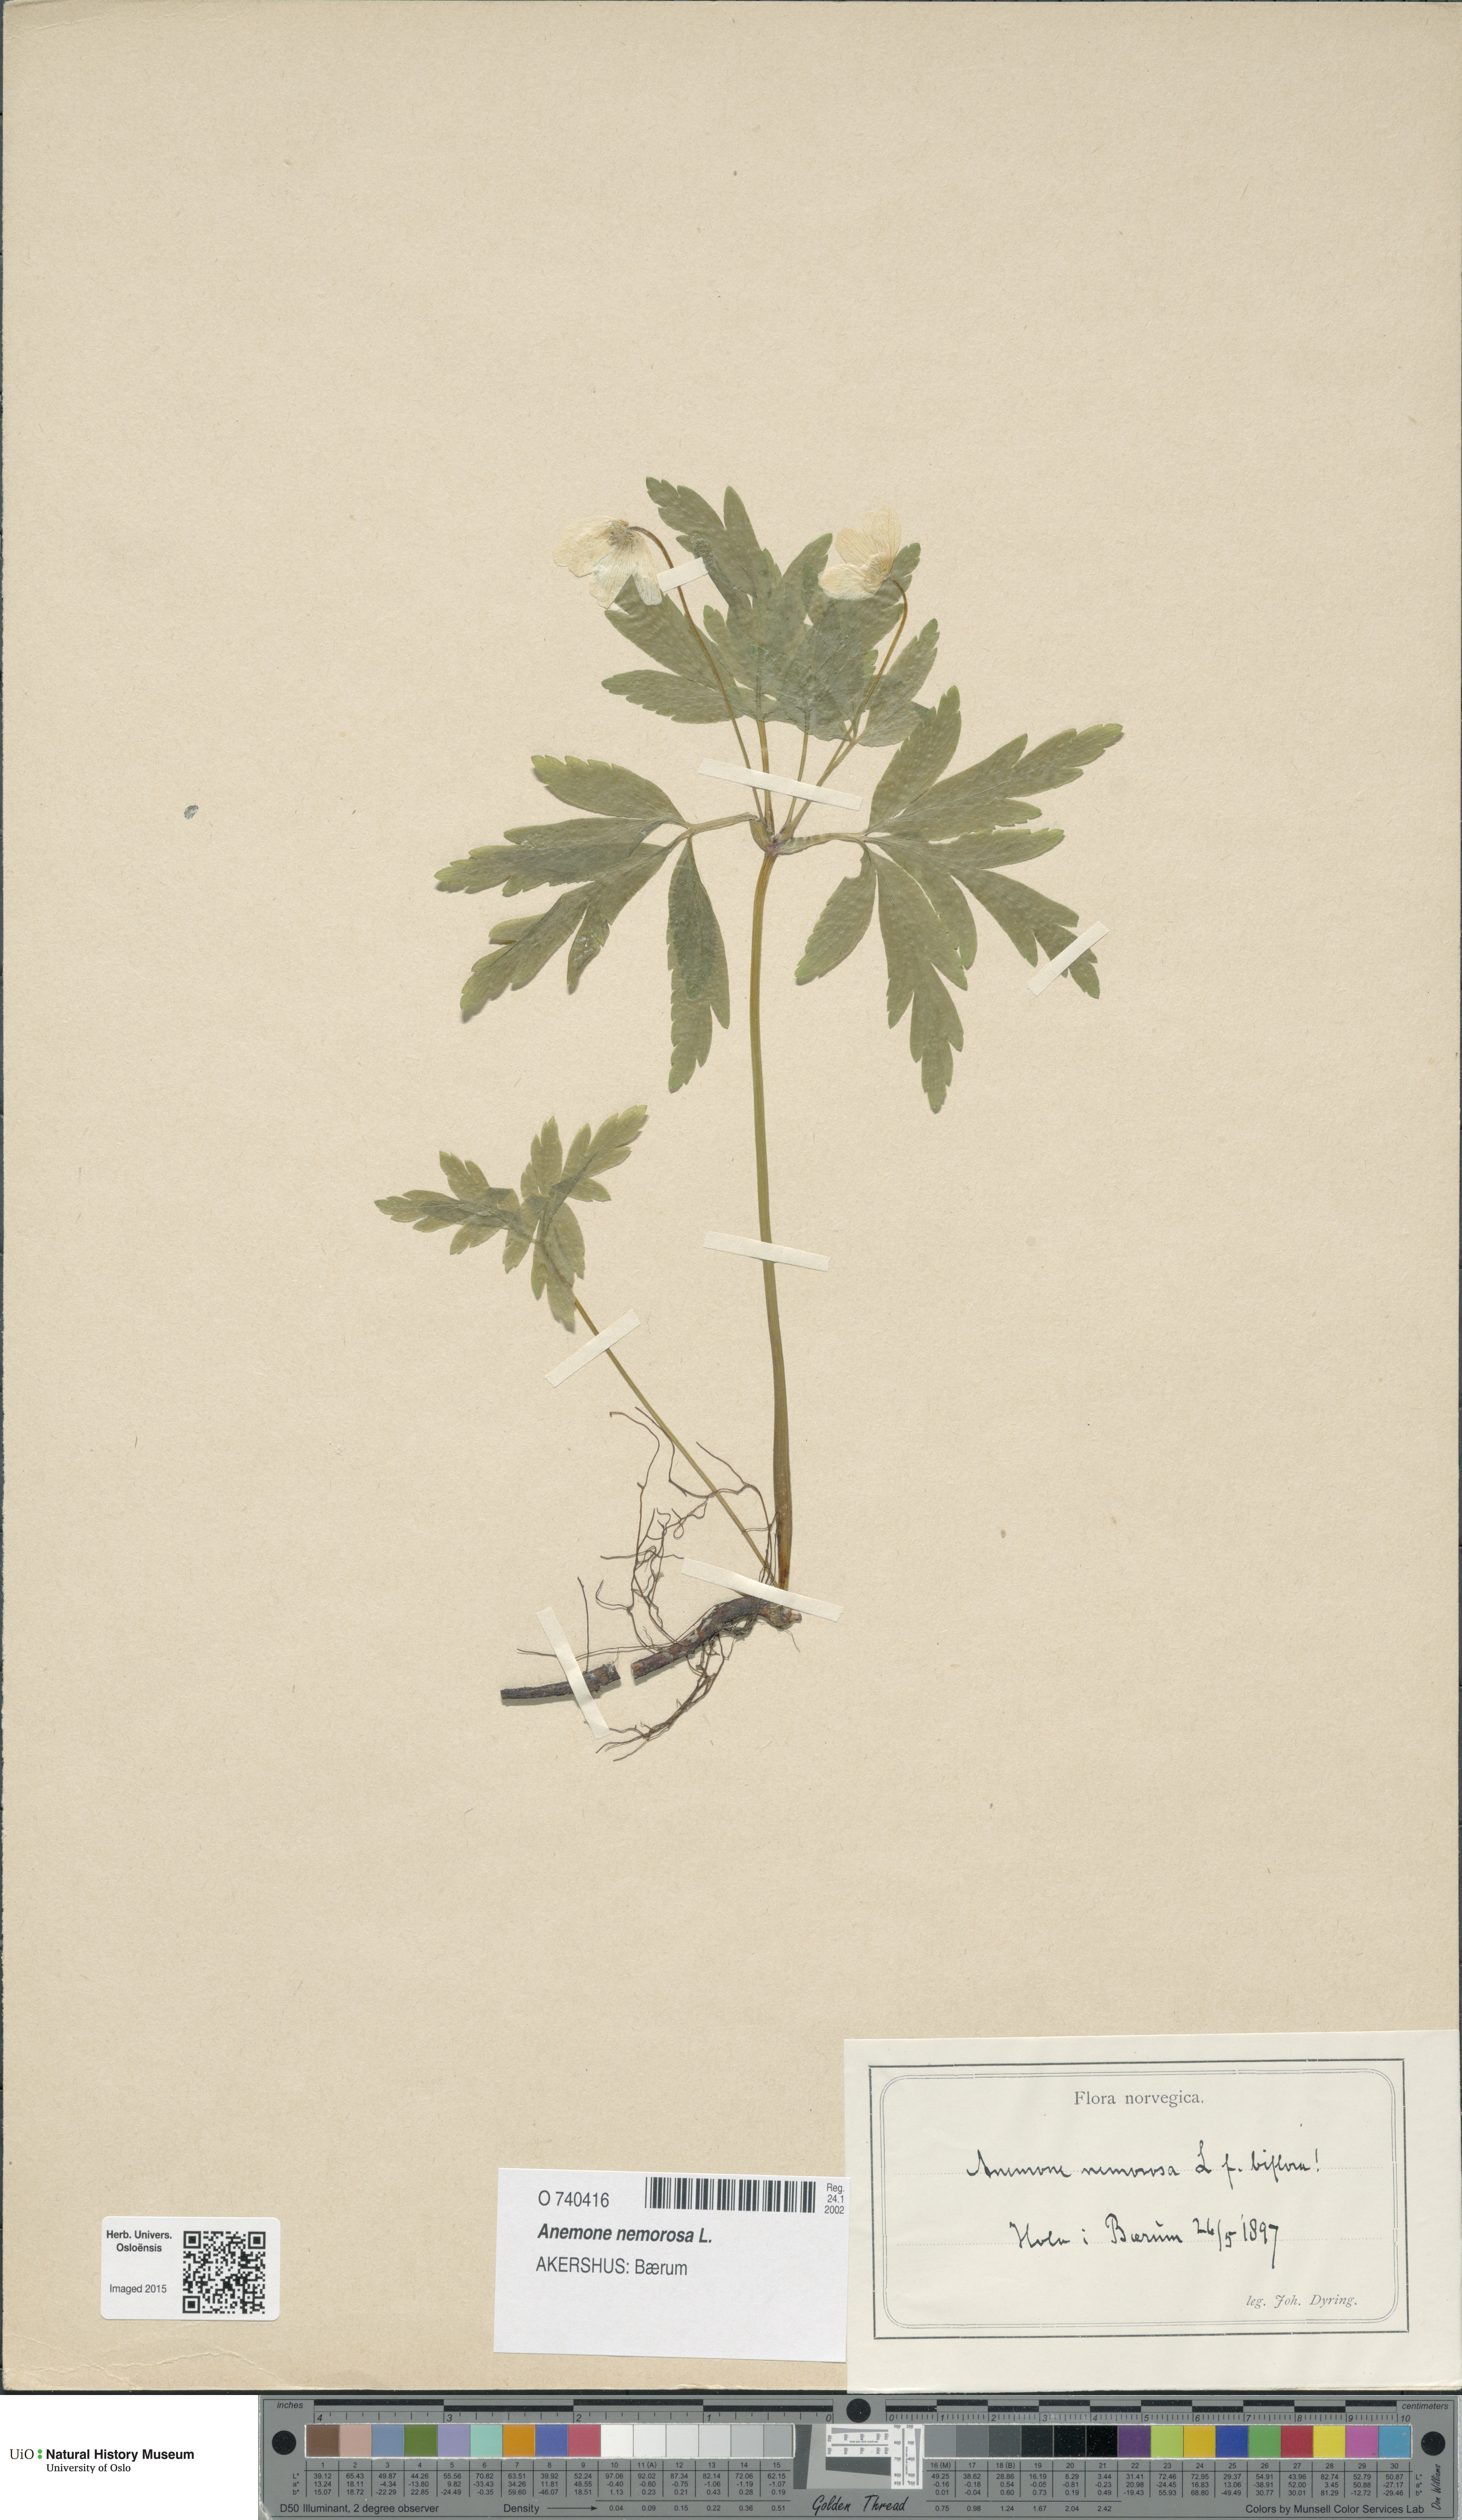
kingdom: Plantae
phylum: Tracheophyta
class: Magnoliopsida
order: Ranunculales
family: Ranunculaceae
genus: Anemone
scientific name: Anemone nemorosa
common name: Wood anemone
